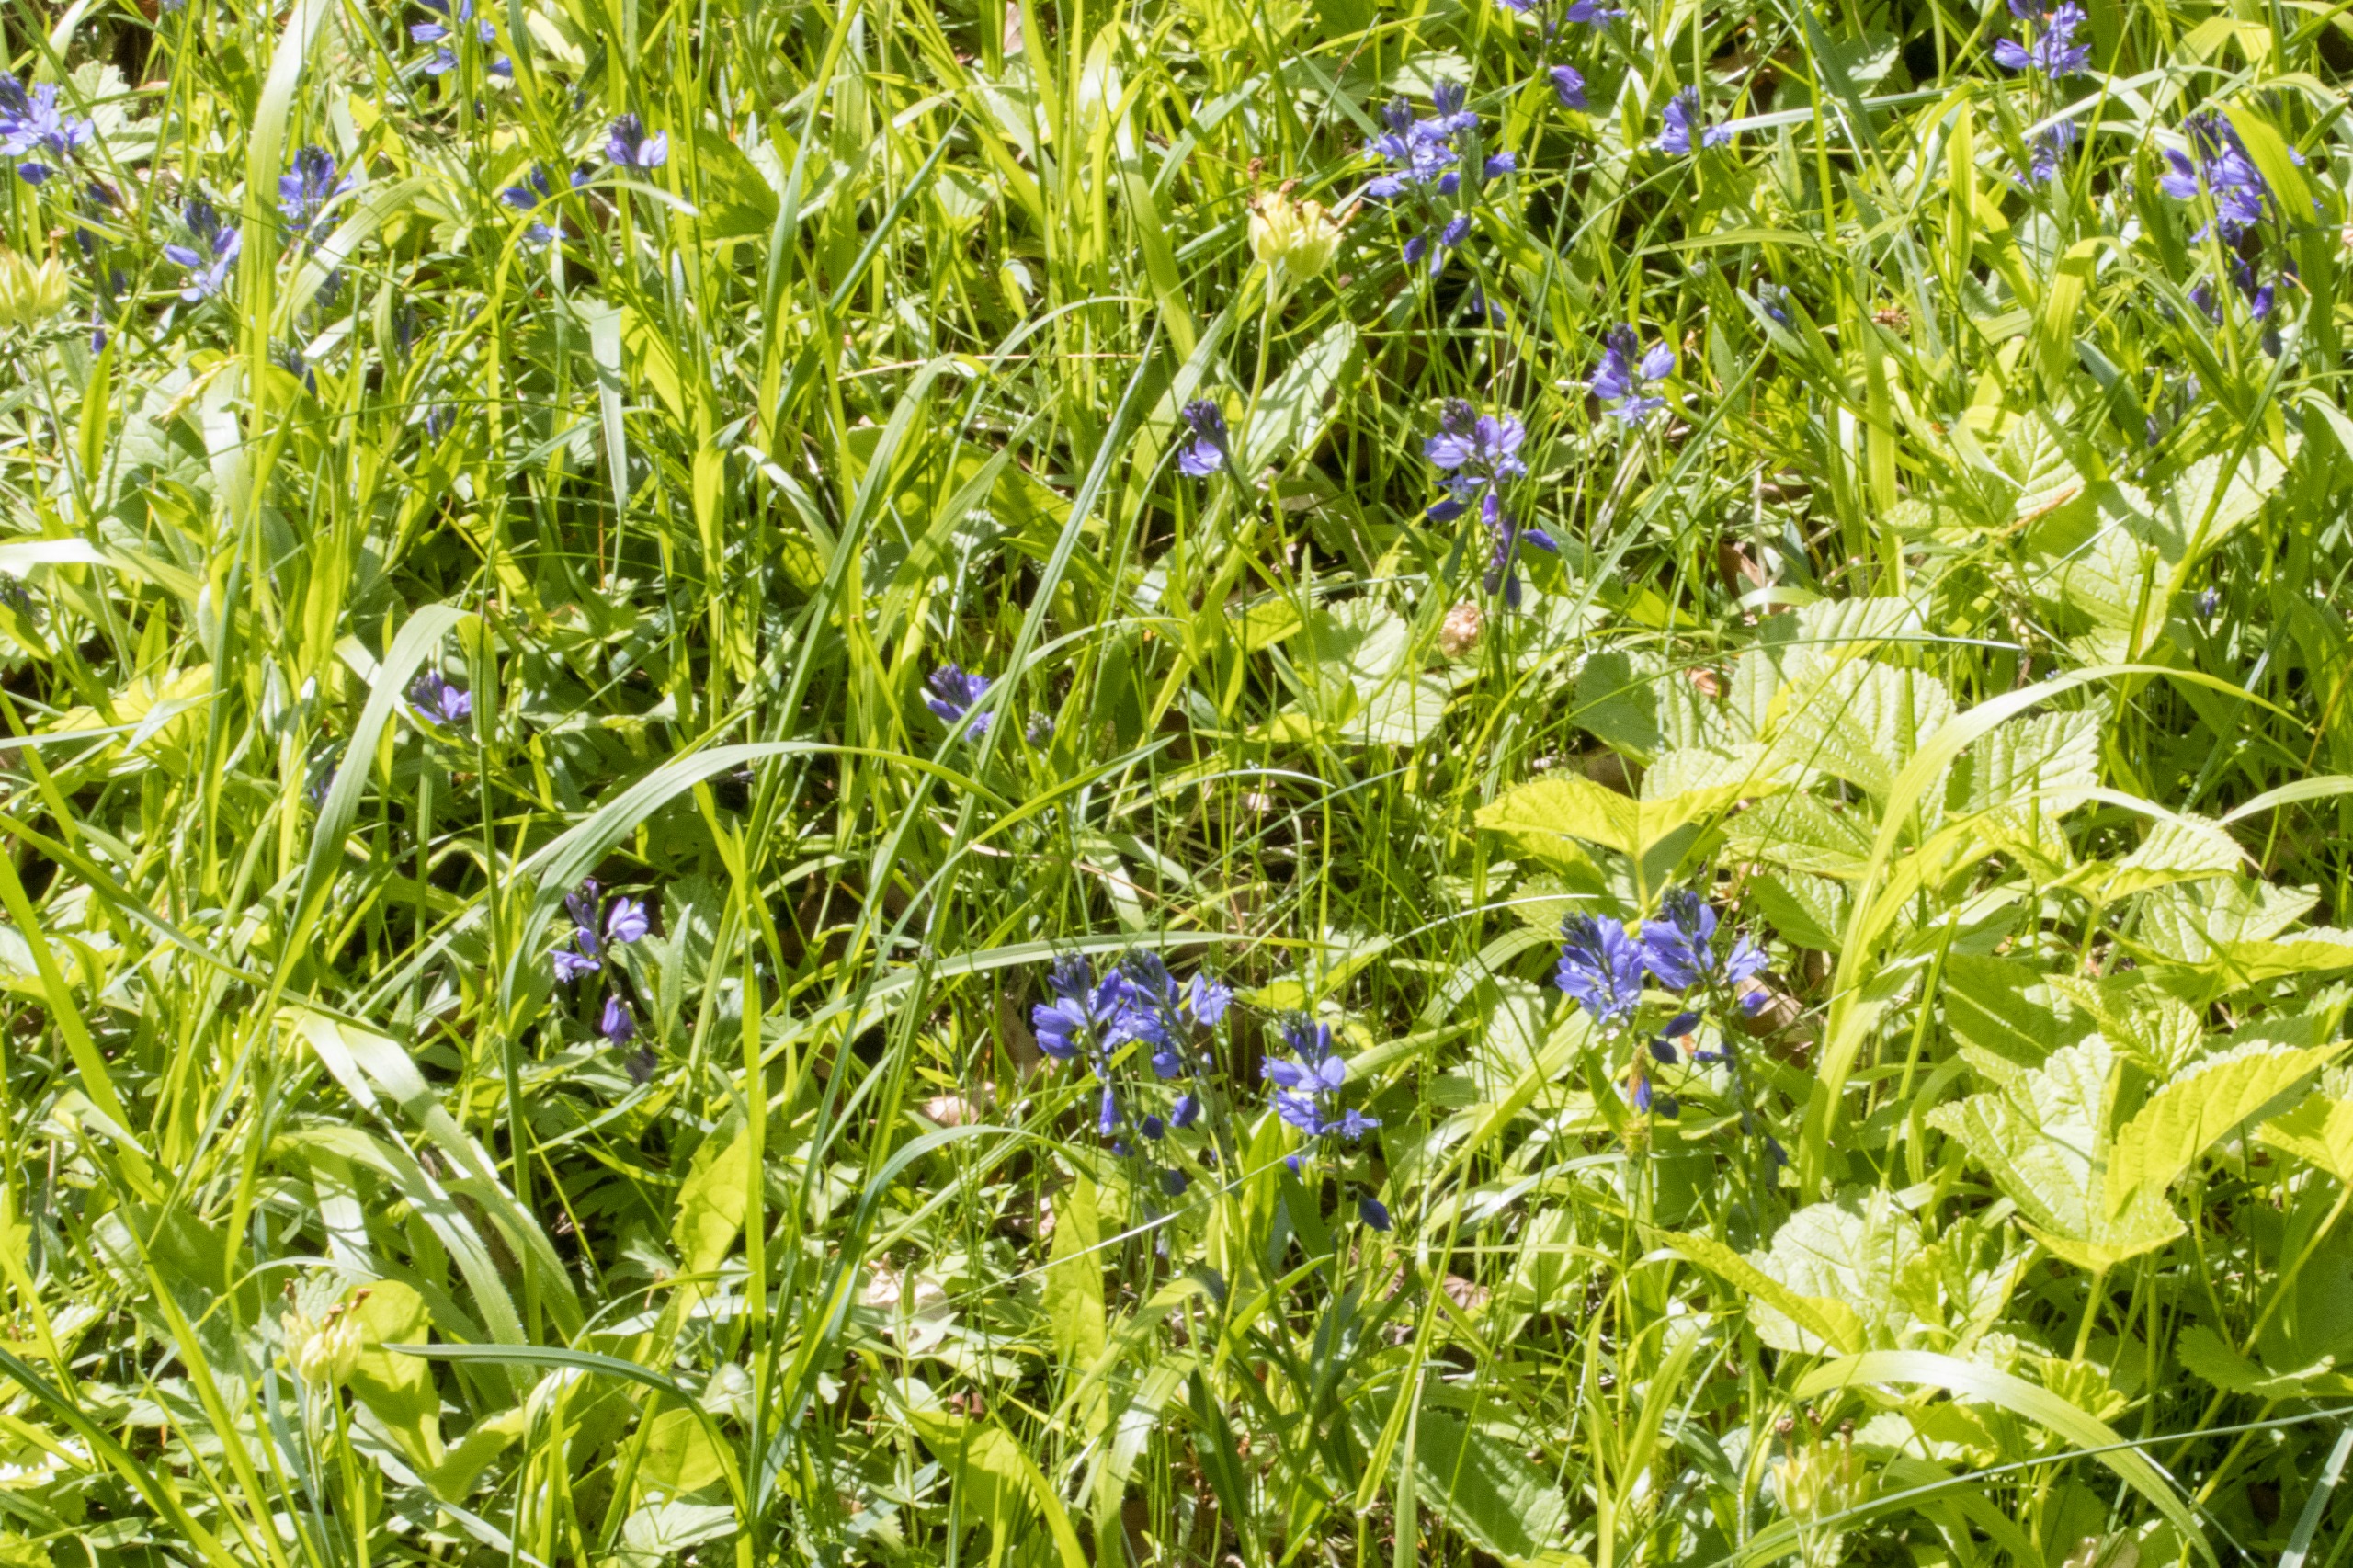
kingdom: Plantae
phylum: Tracheophyta
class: Magnoliopsida
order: Fabales
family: Polygalaceae
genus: Polygala
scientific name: Polygala vulgaris
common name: Almindelig mælkeurt
